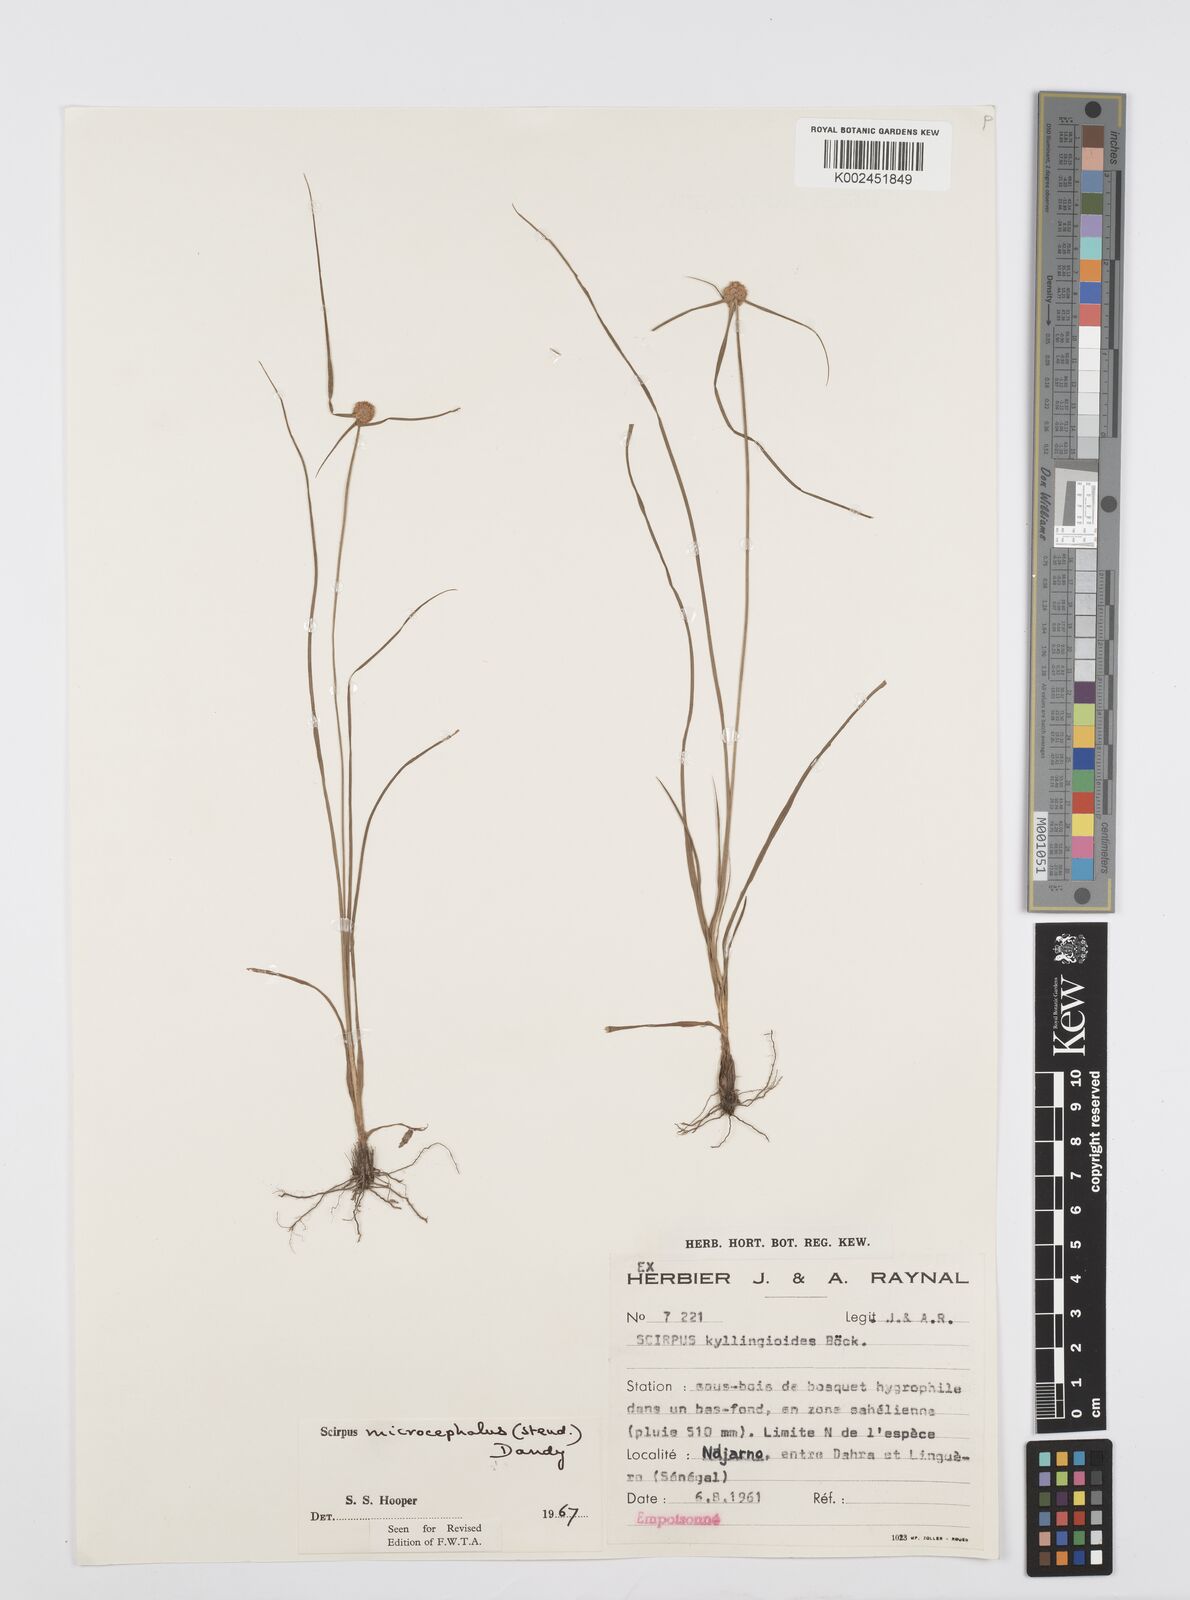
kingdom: Plantae
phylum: Tracheophyta
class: Liliopsida
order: Poales
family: Cyperaceae
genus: Cyperus
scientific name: Cyperus microcephalus
